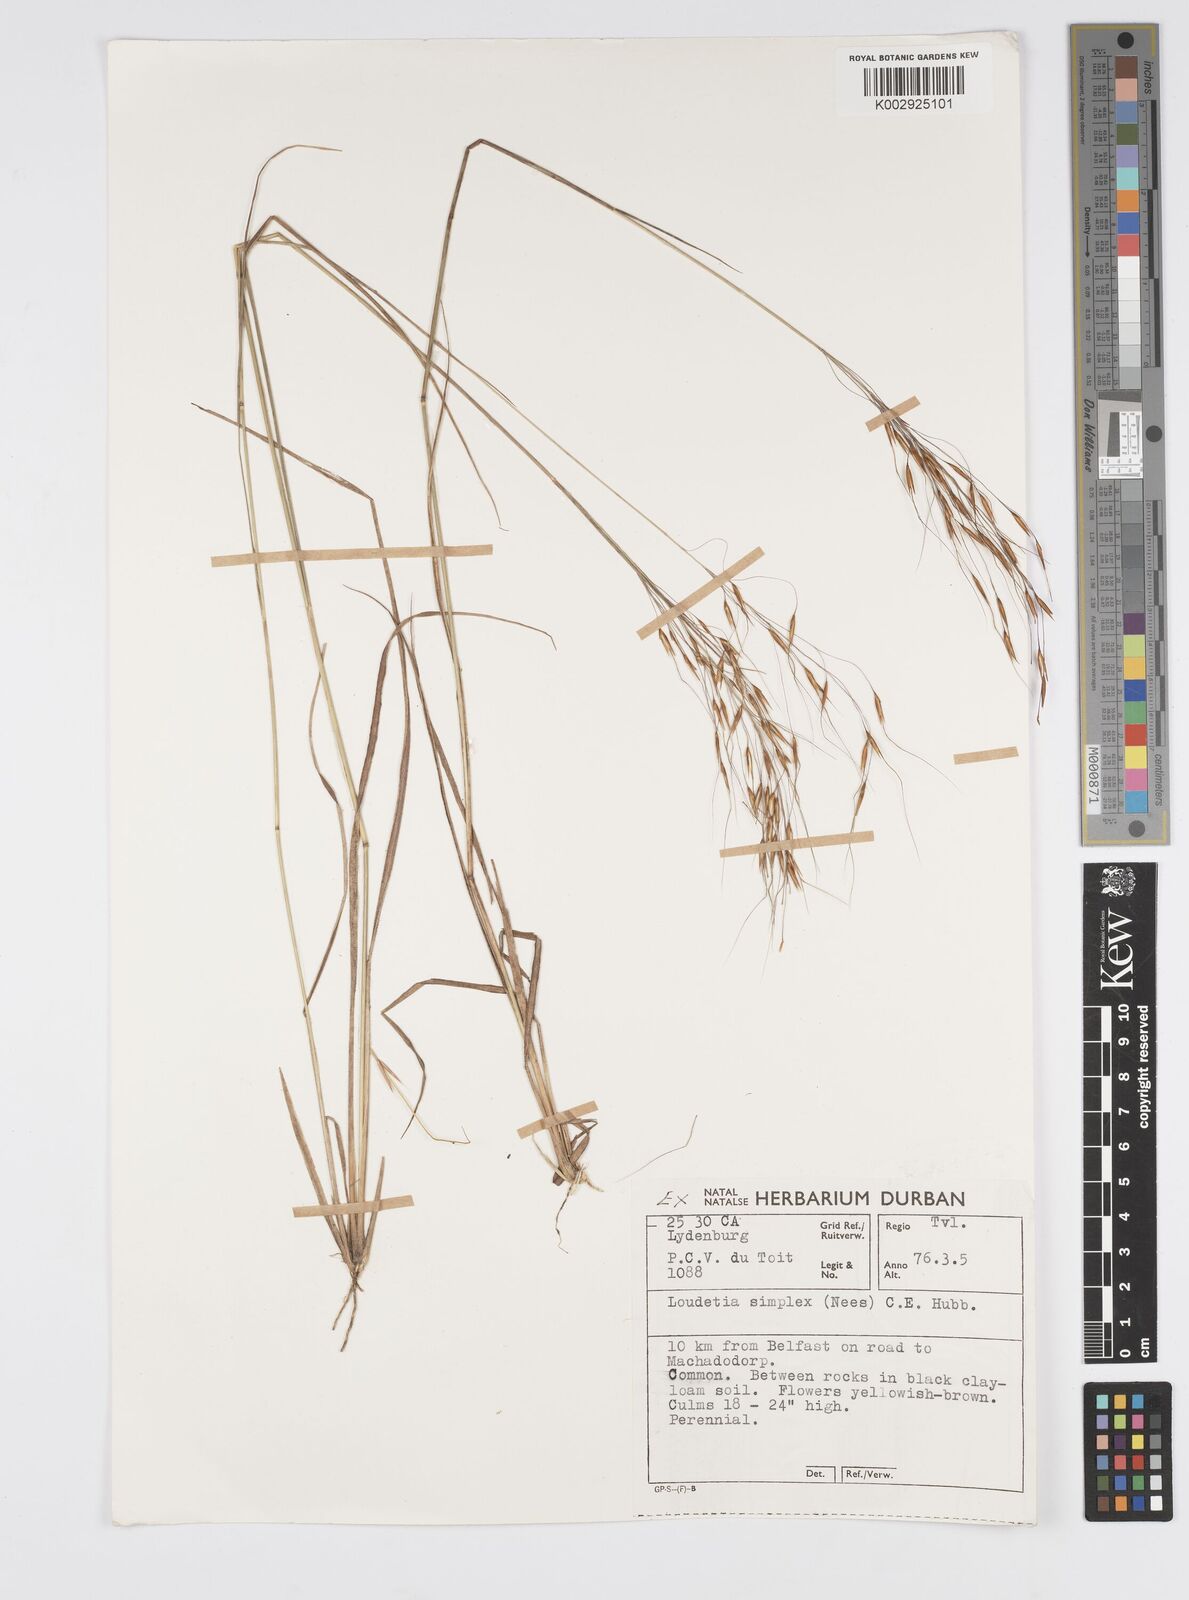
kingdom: Plantae
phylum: Tracheophyta
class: Liliopsida
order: Poales
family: Poaceae
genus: Loudetia
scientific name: Loudetia simplex
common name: Common russet grass
